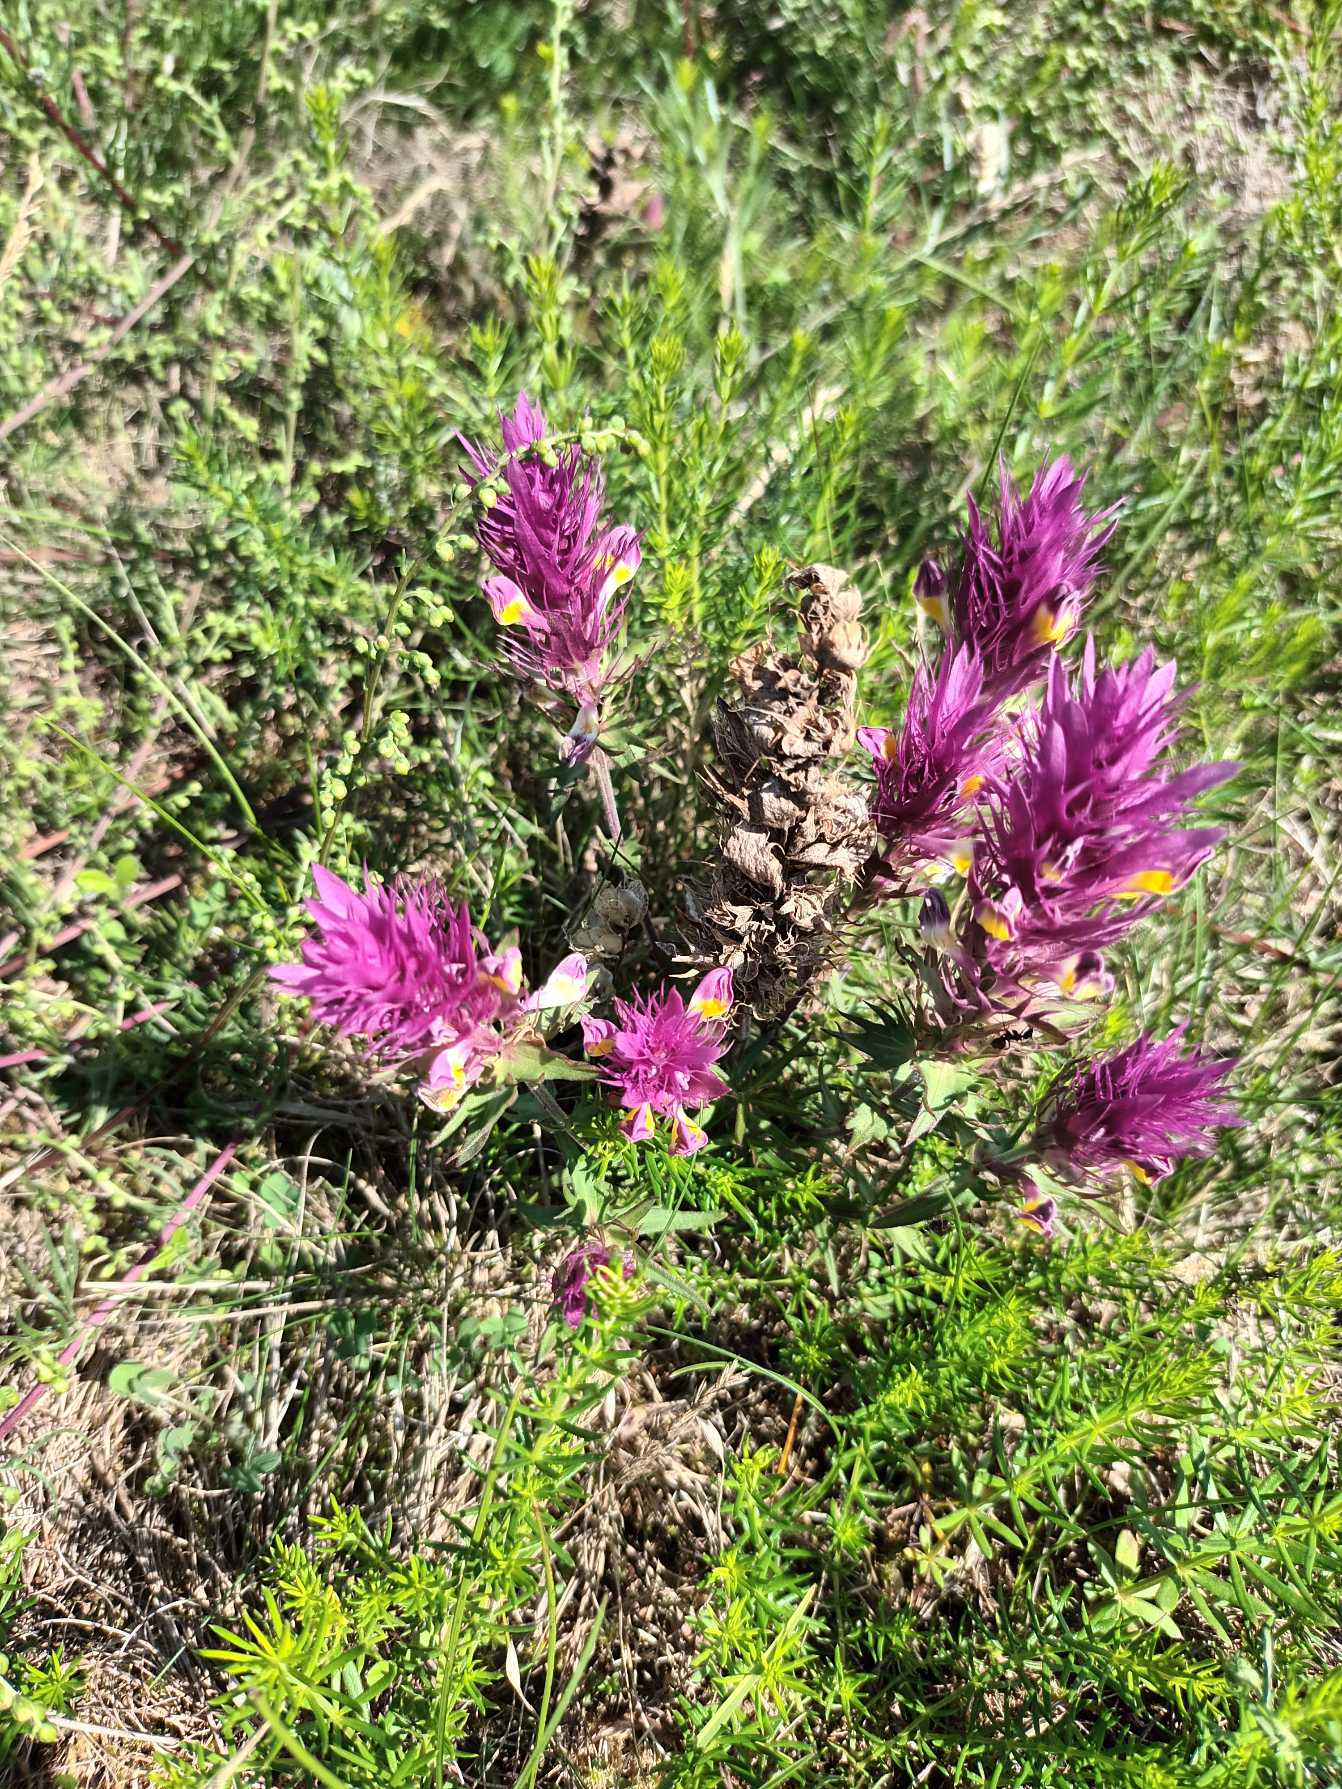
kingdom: Plantae
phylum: Tracheophyta
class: Magnoliopsida
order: Lamiales
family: Orobanchaceae
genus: Melampyrum
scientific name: Melampyrum arvense
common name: Ager-kohvede
